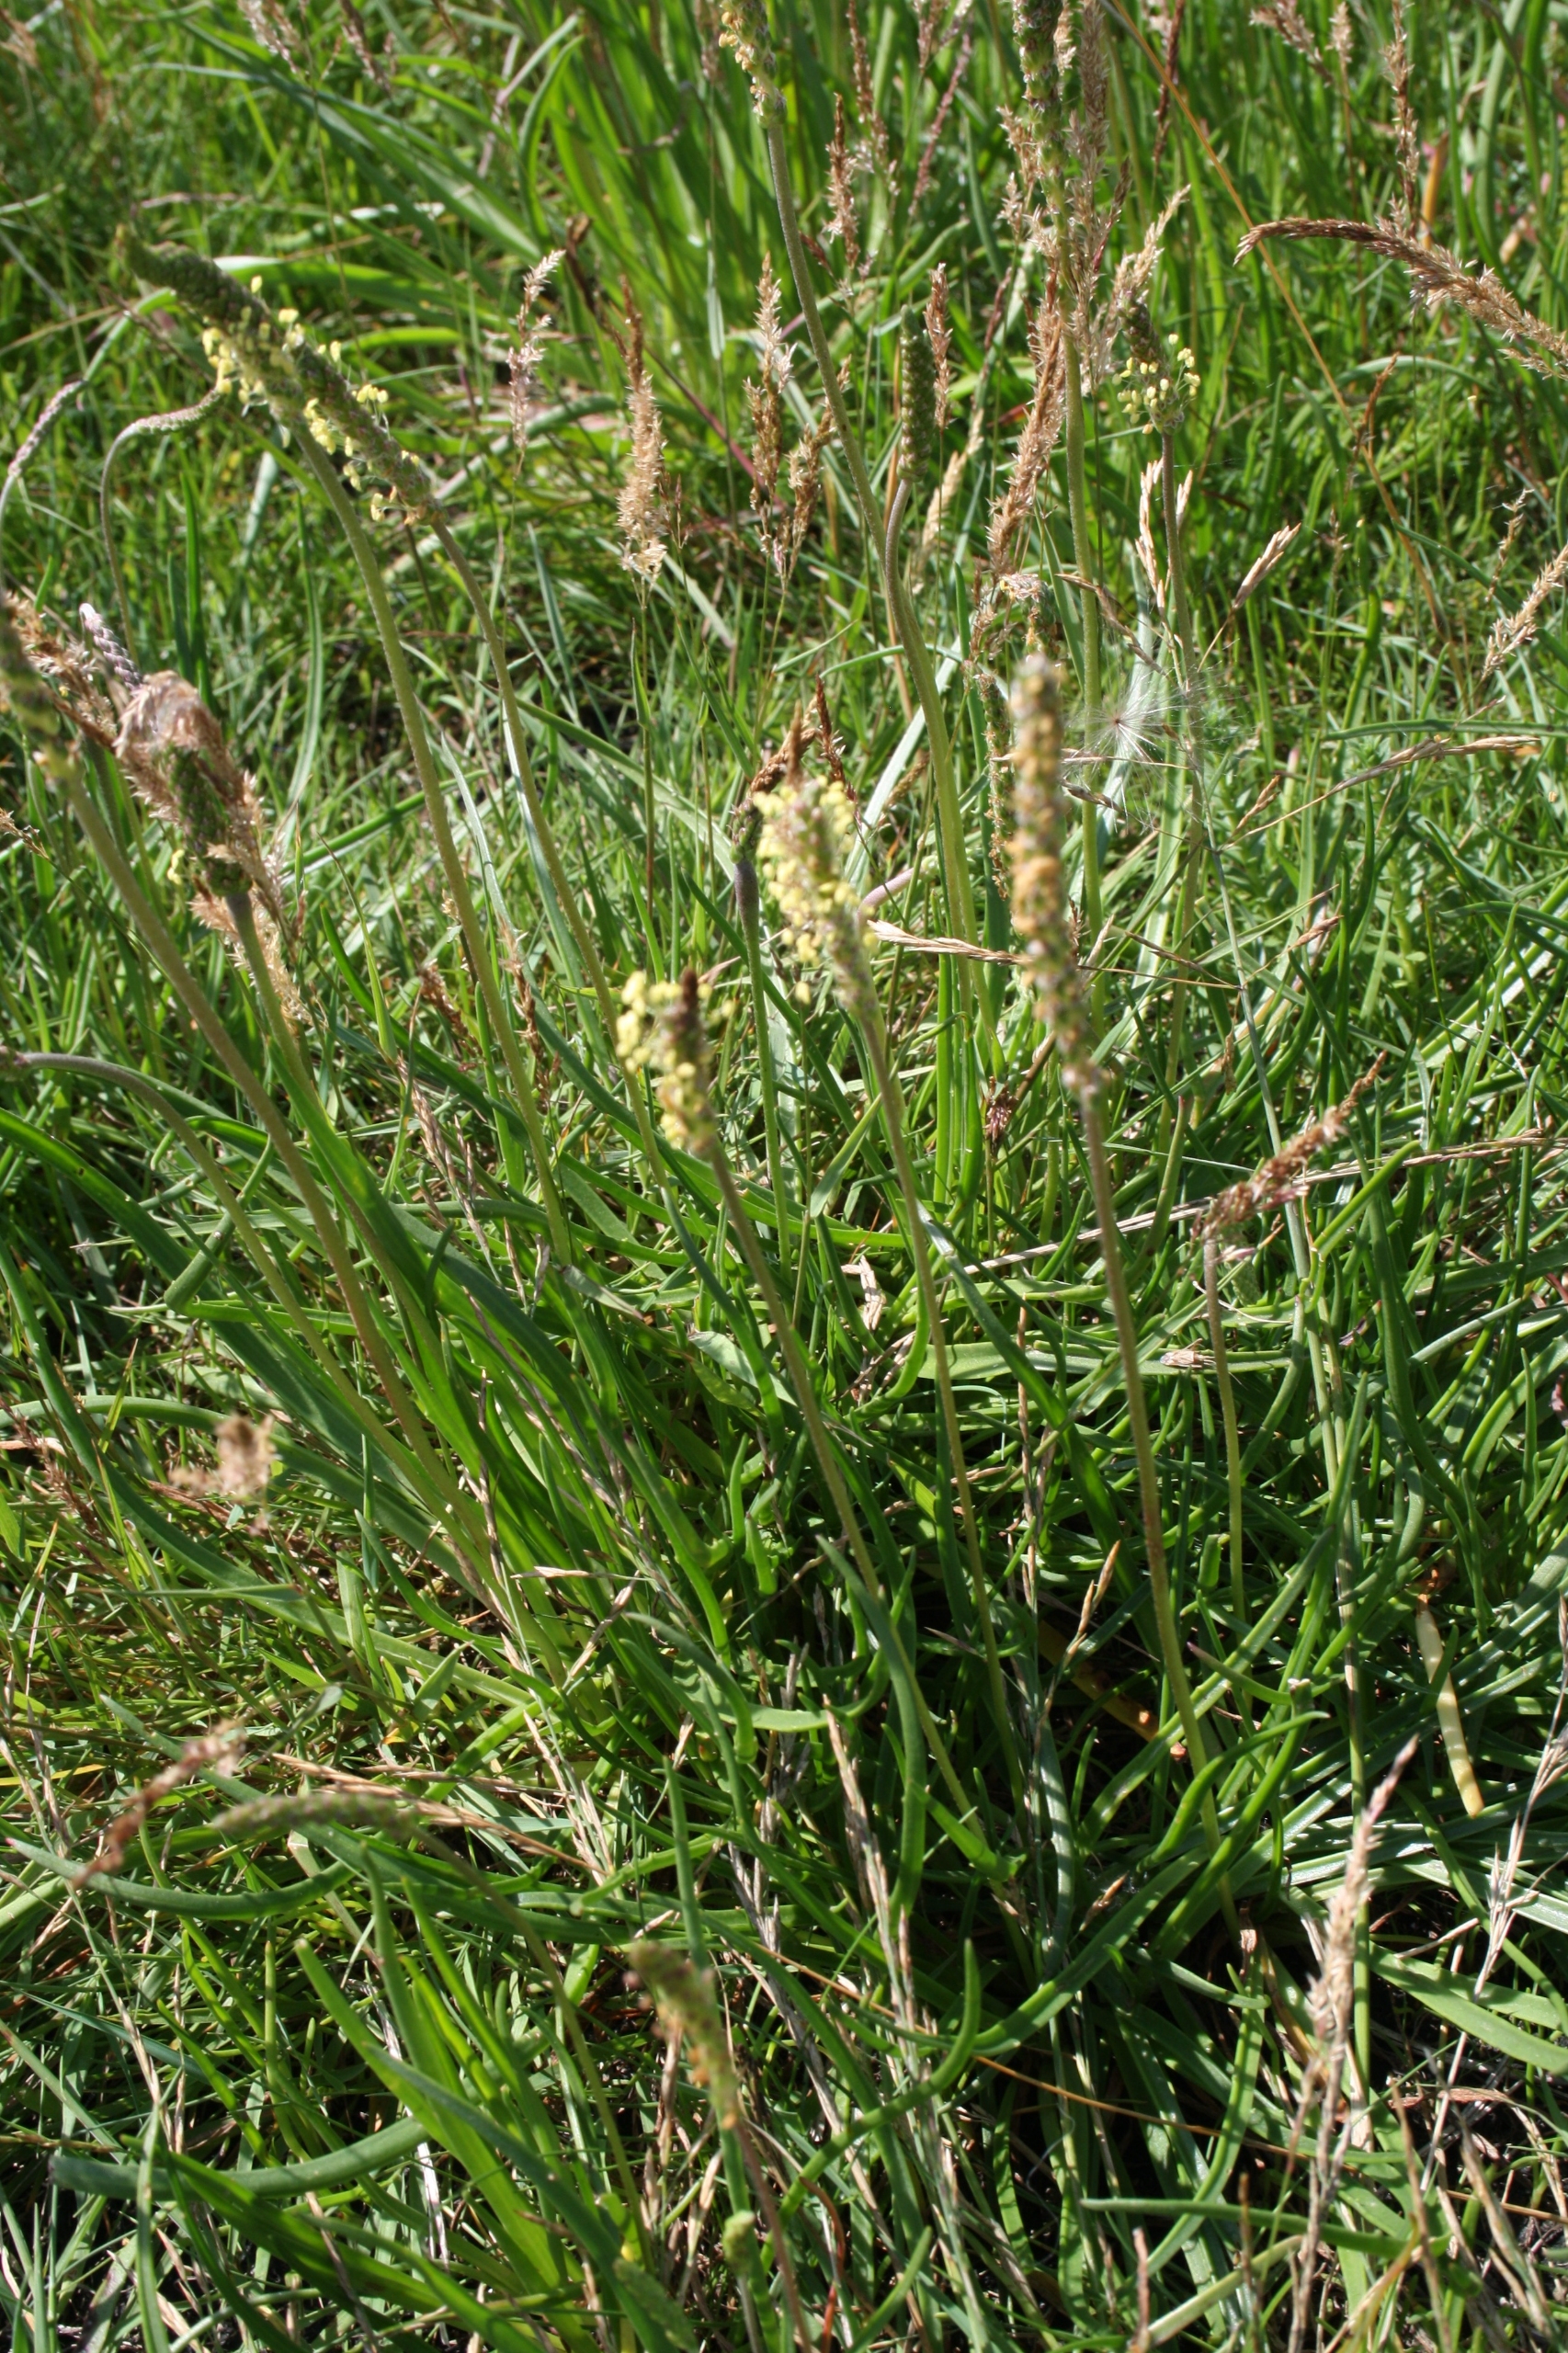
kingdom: Plantae
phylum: Tracheophyta
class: Magnoliopsida
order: Lamiales
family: Plantaginaceae
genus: Plantago
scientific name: Plantago maritima
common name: Strand-vejbred
